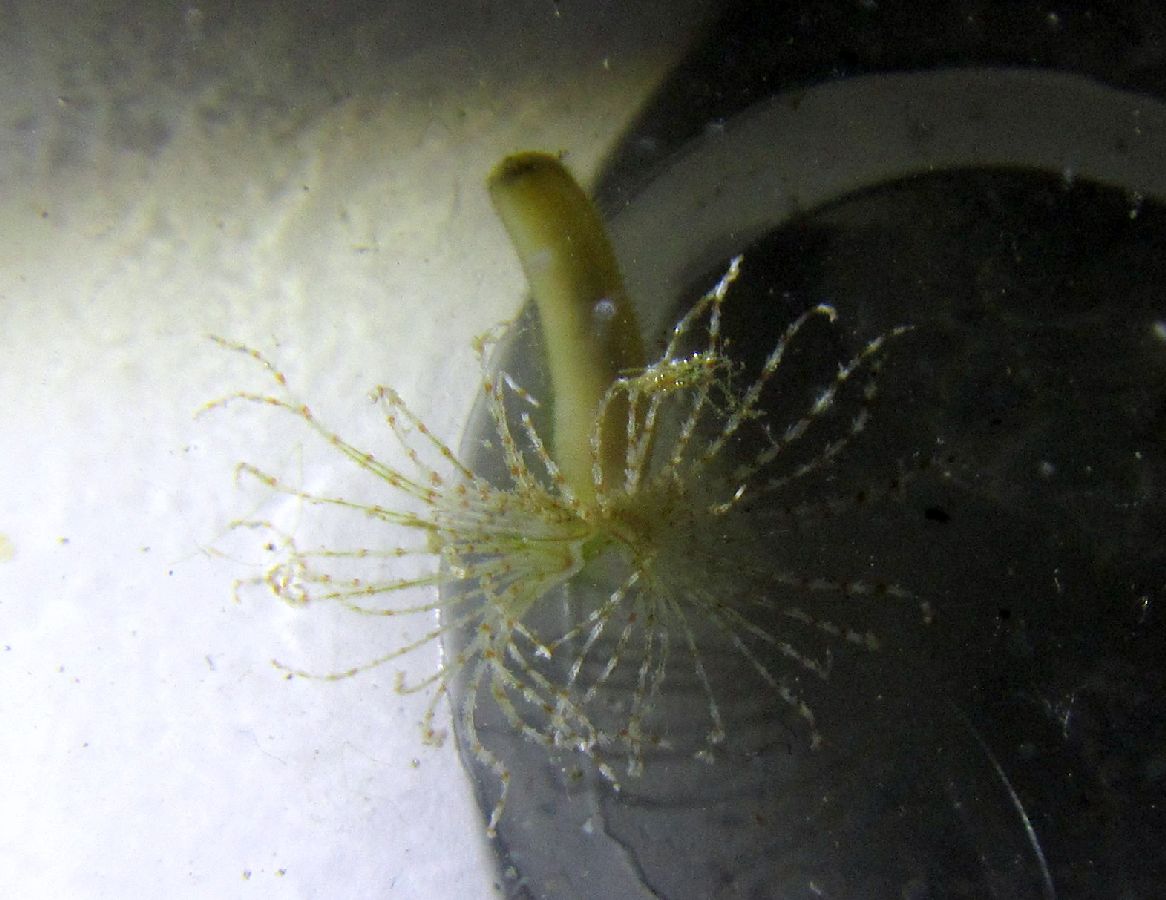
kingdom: Animalia
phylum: Annelida
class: Polychaeta
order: Sabellida
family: Sabellidae
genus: Branchiomma
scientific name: Branchiomma arcticum
